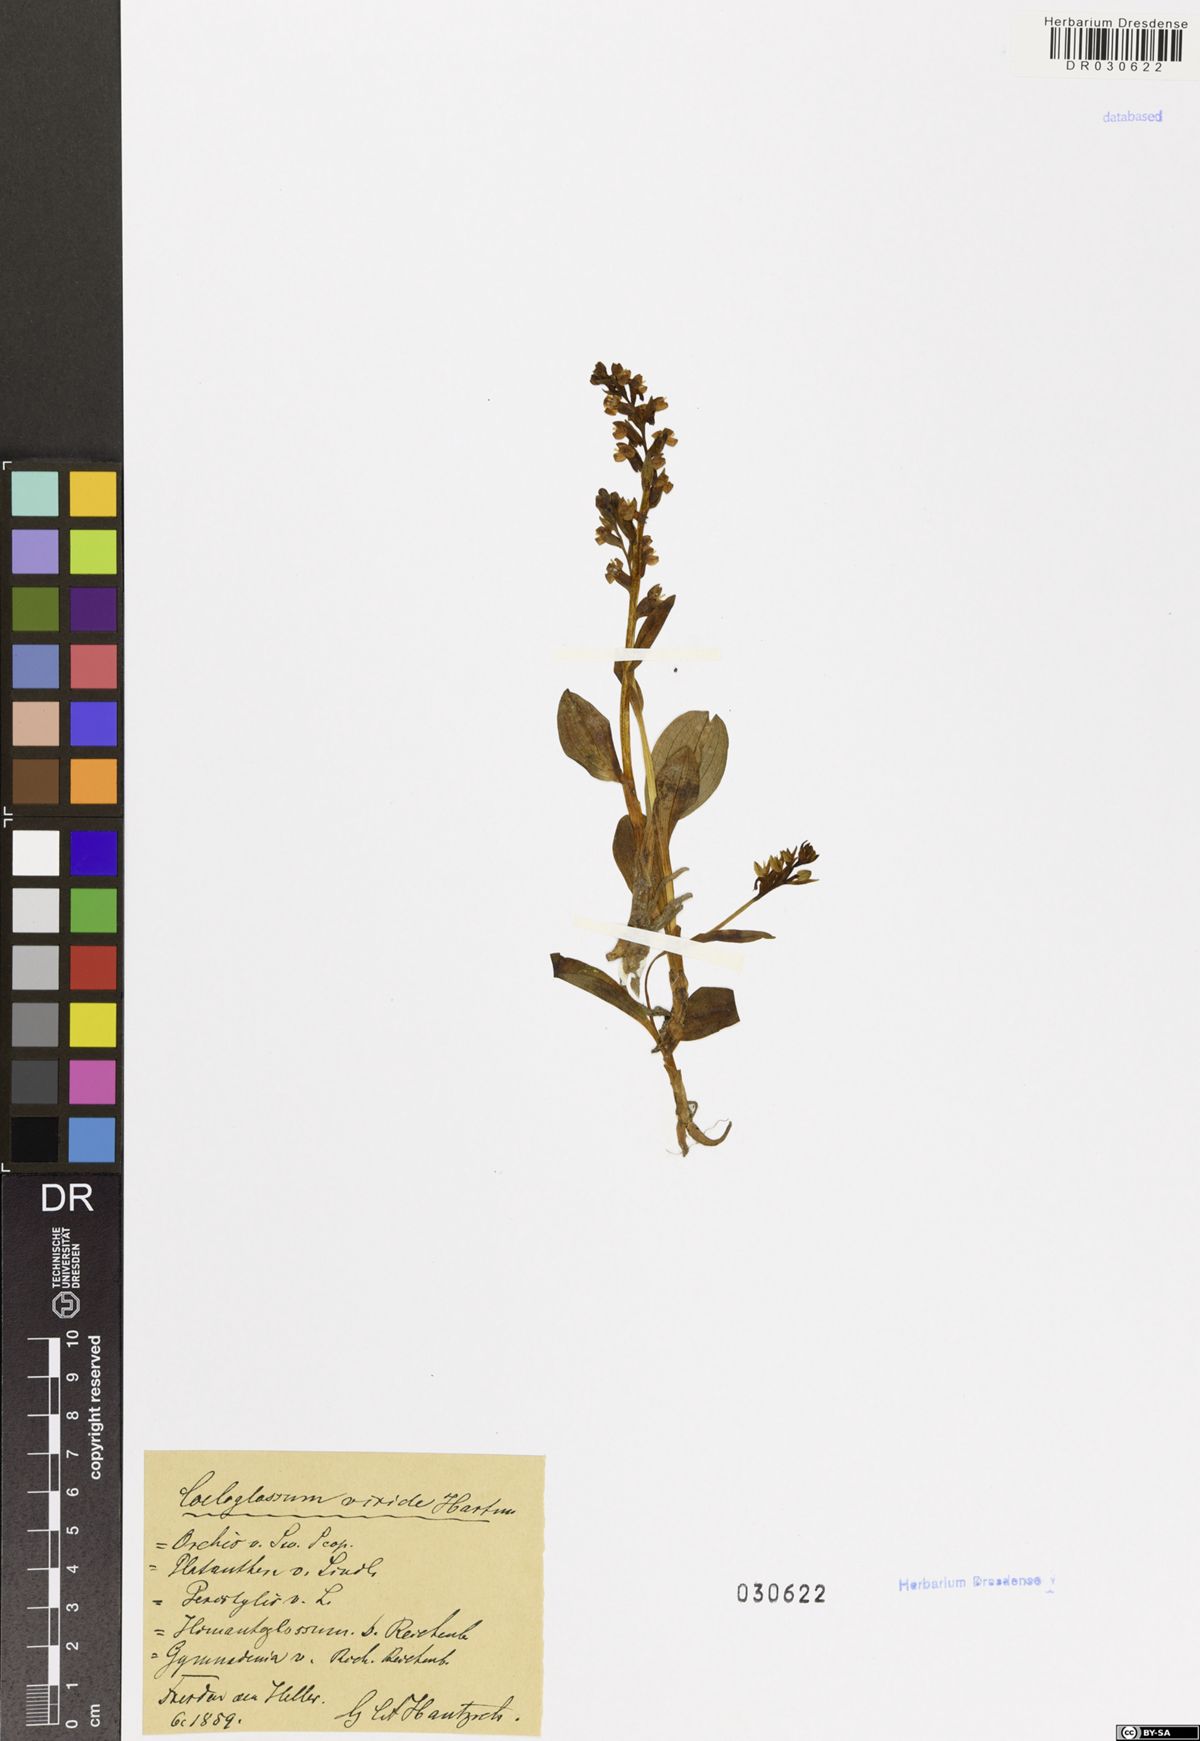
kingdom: Plantae
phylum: Tracheophyta
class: Liliopsida
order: Asparagales
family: Orchidaceae
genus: Dactylorhiza
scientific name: Dactylorhiza viridis
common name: Longbract frog orchid
